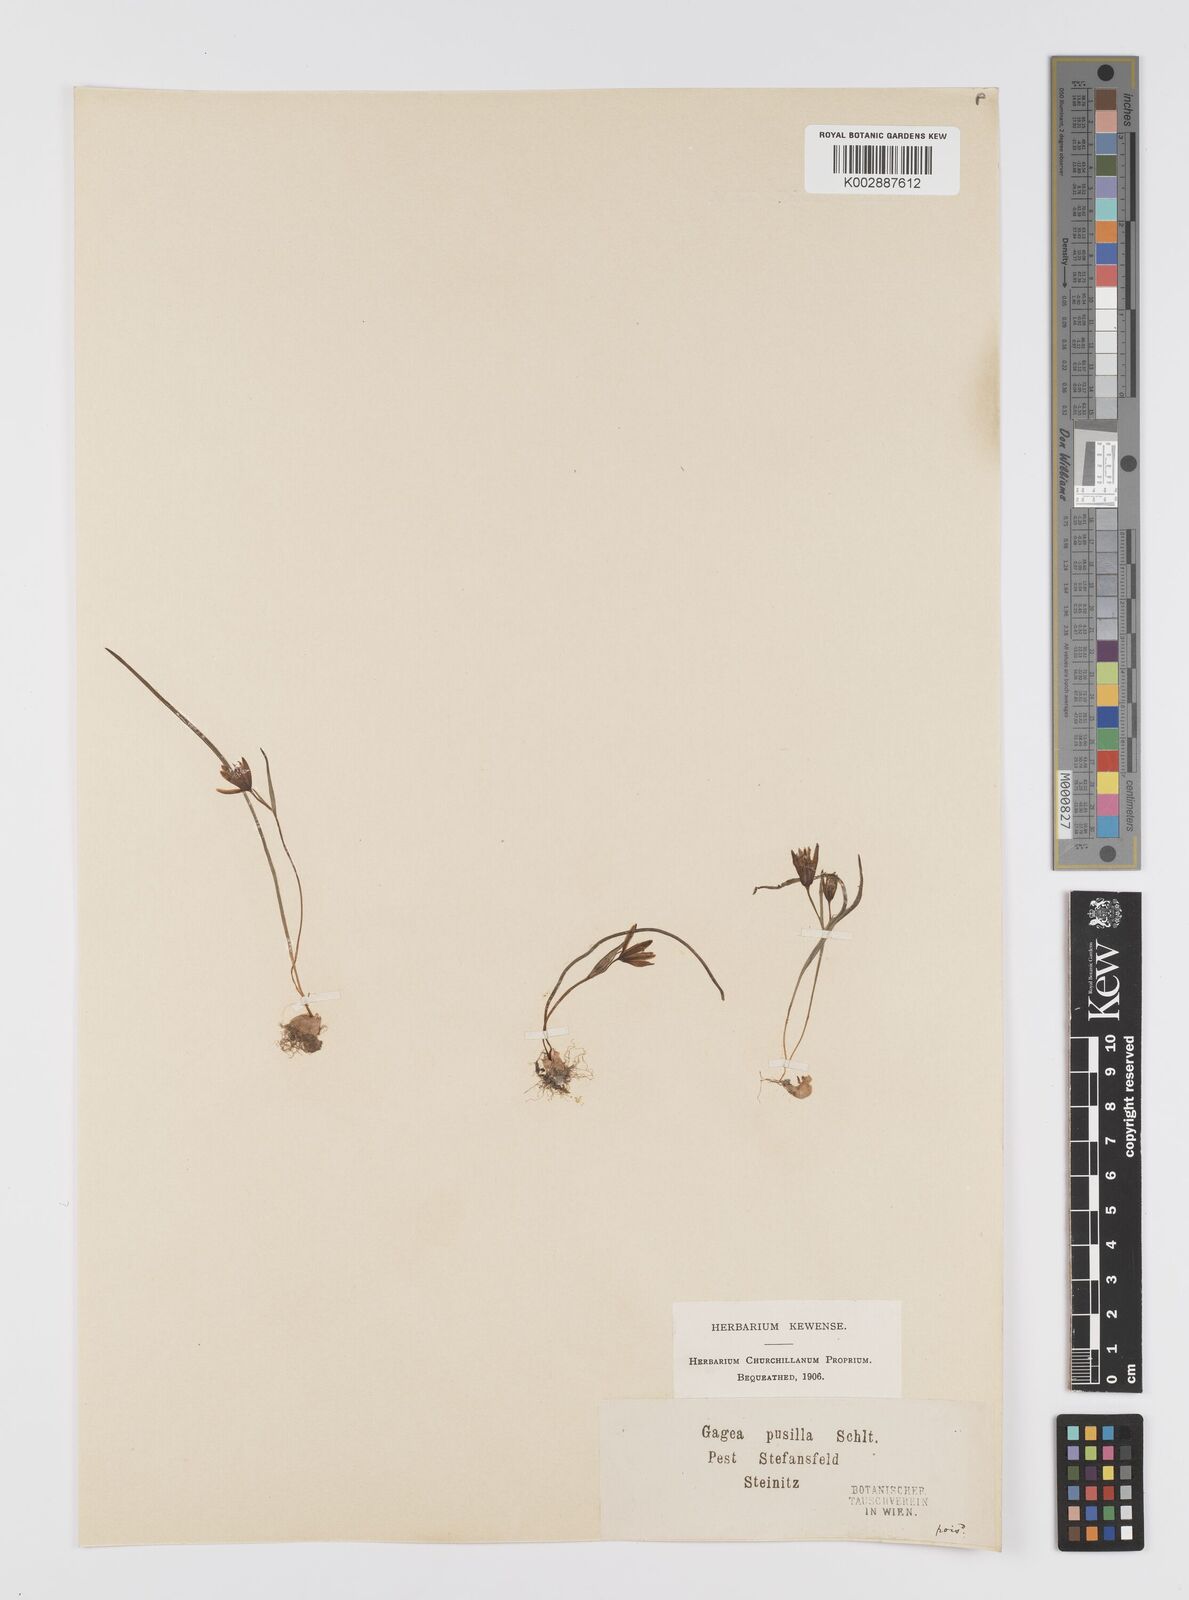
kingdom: Plantae
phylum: Tracheophyta
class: Liliopsida
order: Liliales
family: Liliaceae
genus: Gagea
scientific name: Gagea pusilla
